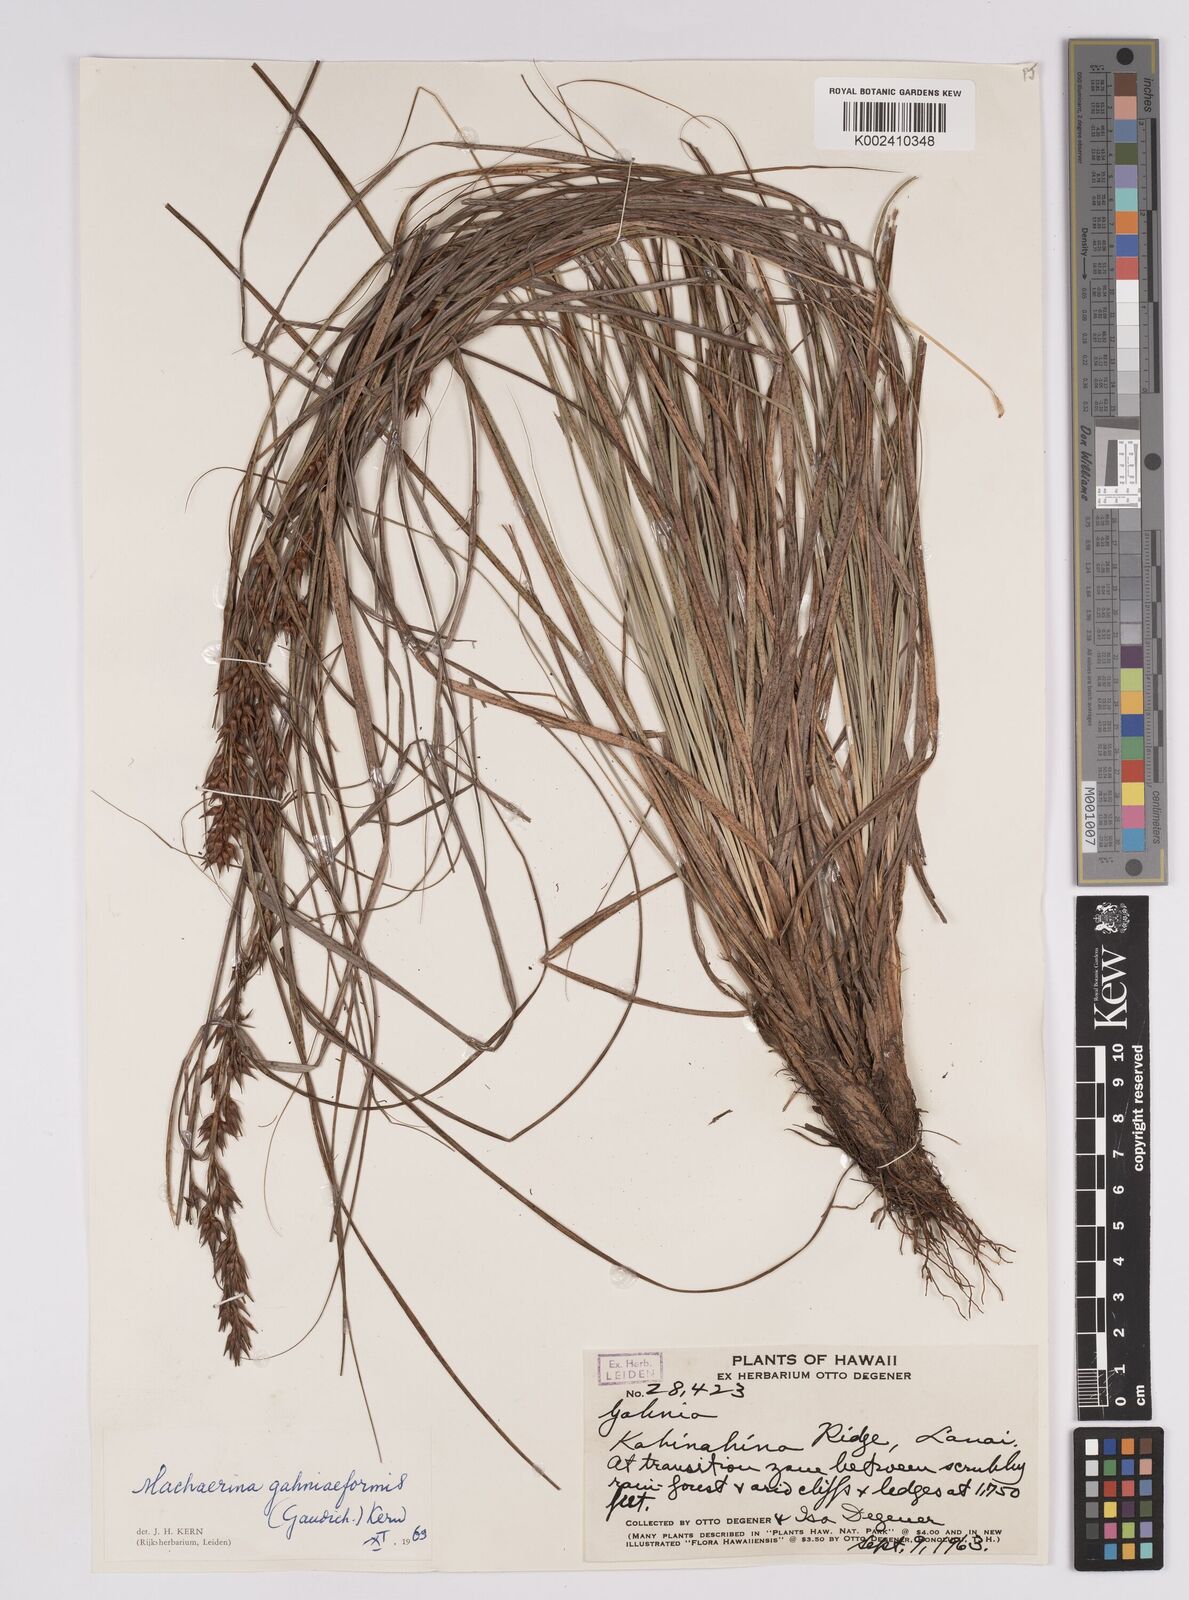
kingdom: Plantae
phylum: Tracheophyta
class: Liliopsida
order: Poales
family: Cyperaceae
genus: Morelotia
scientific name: Morelotia gahniiformis
